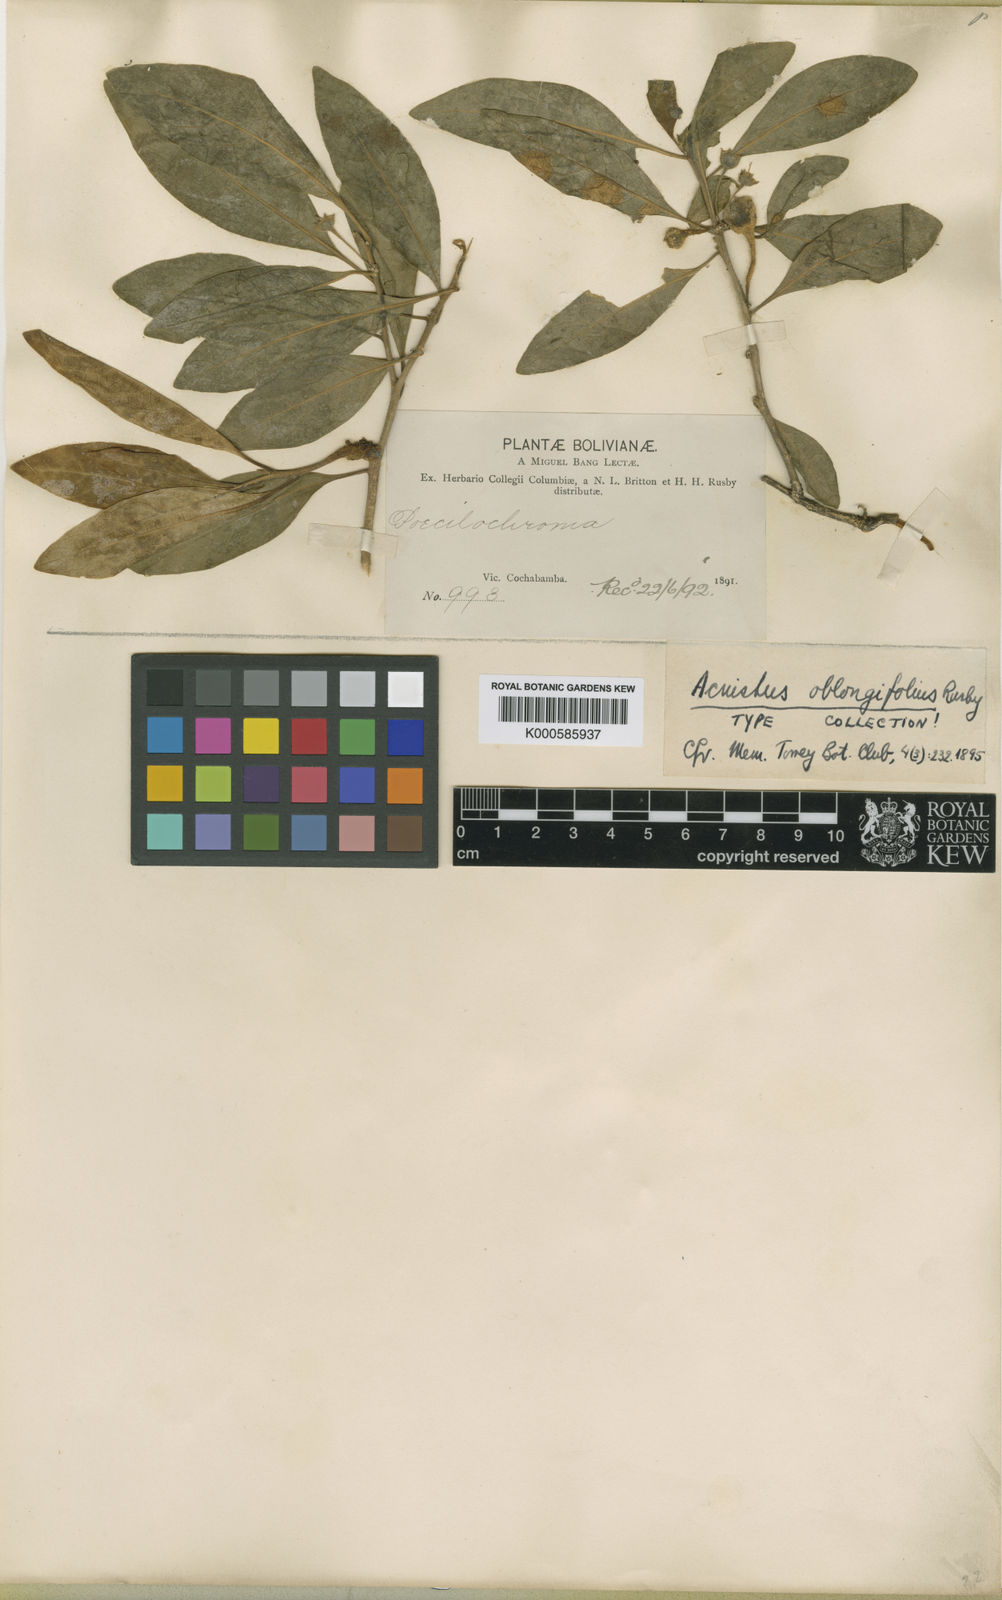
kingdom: Plantae
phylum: Tracheophyta
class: Magnoliopsida
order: Solanales
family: Solanaceae
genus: Eriolarynx
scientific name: Eriolarynx fasciculata
